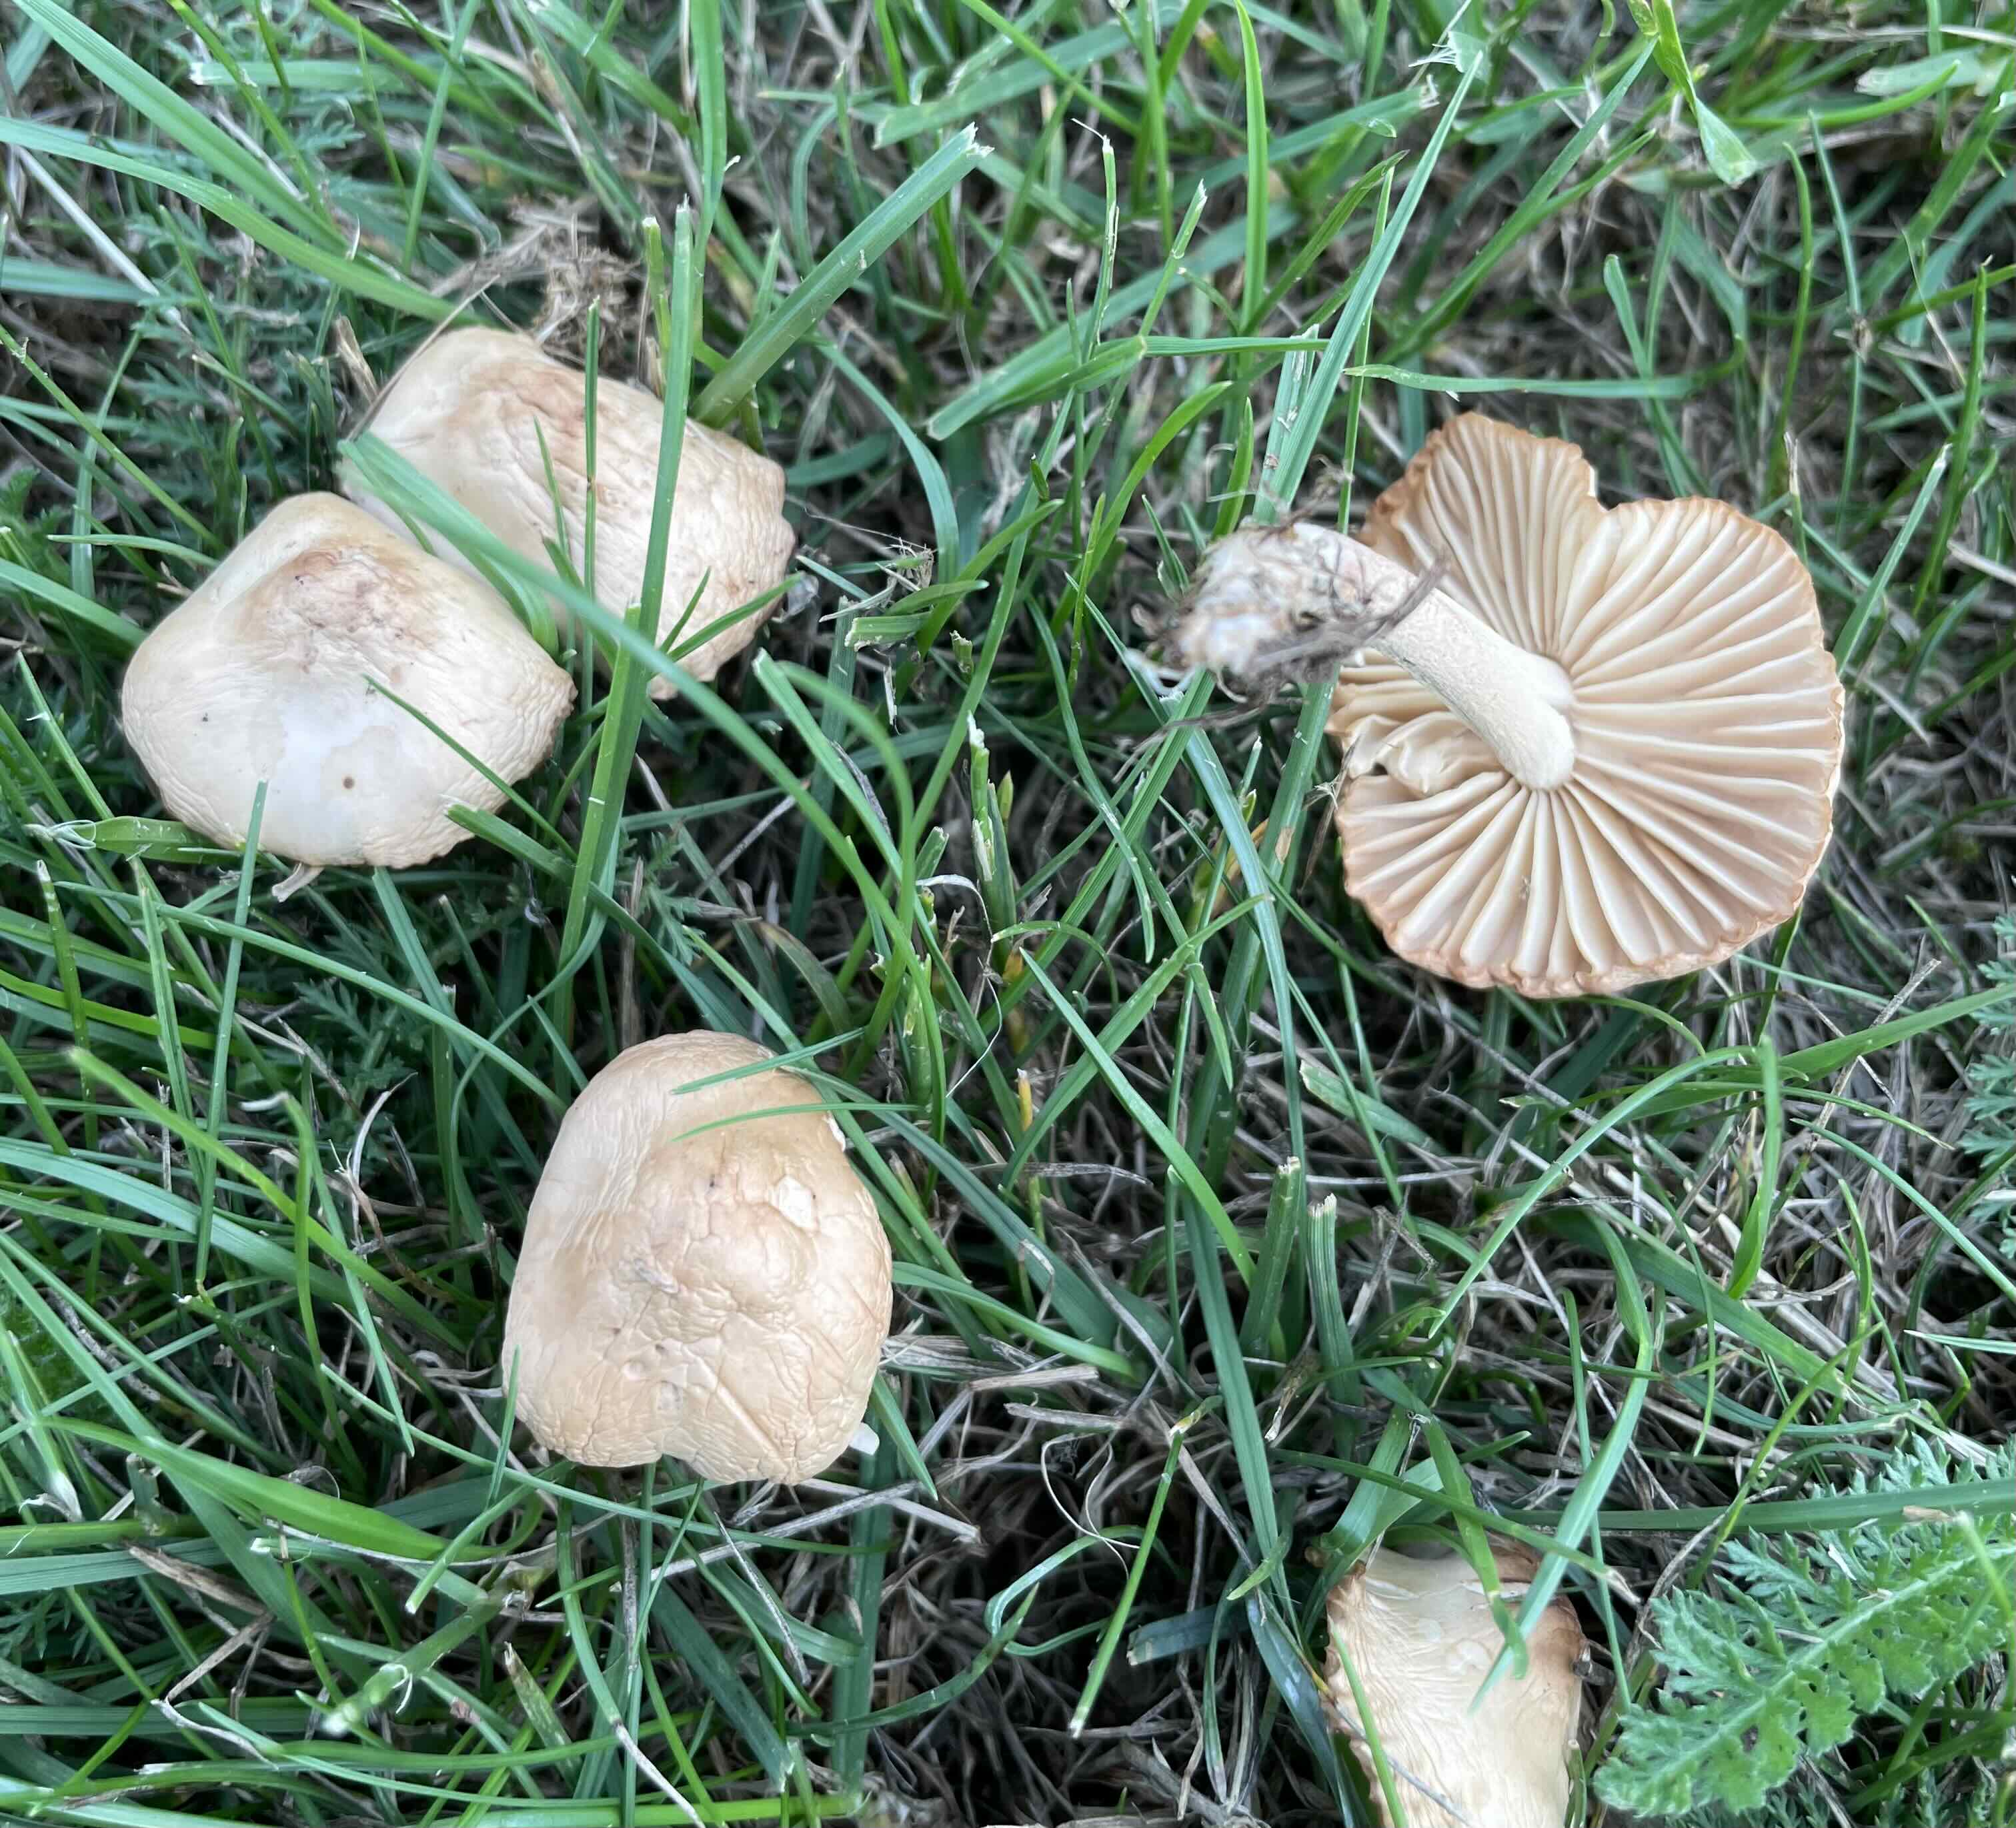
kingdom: Fungi
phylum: Basidiomycota
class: Agaricomycetes
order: Agaricales
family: Marasmiaceae
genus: Marasmius
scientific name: Marasmius oreades
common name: elledans-bruskhat
